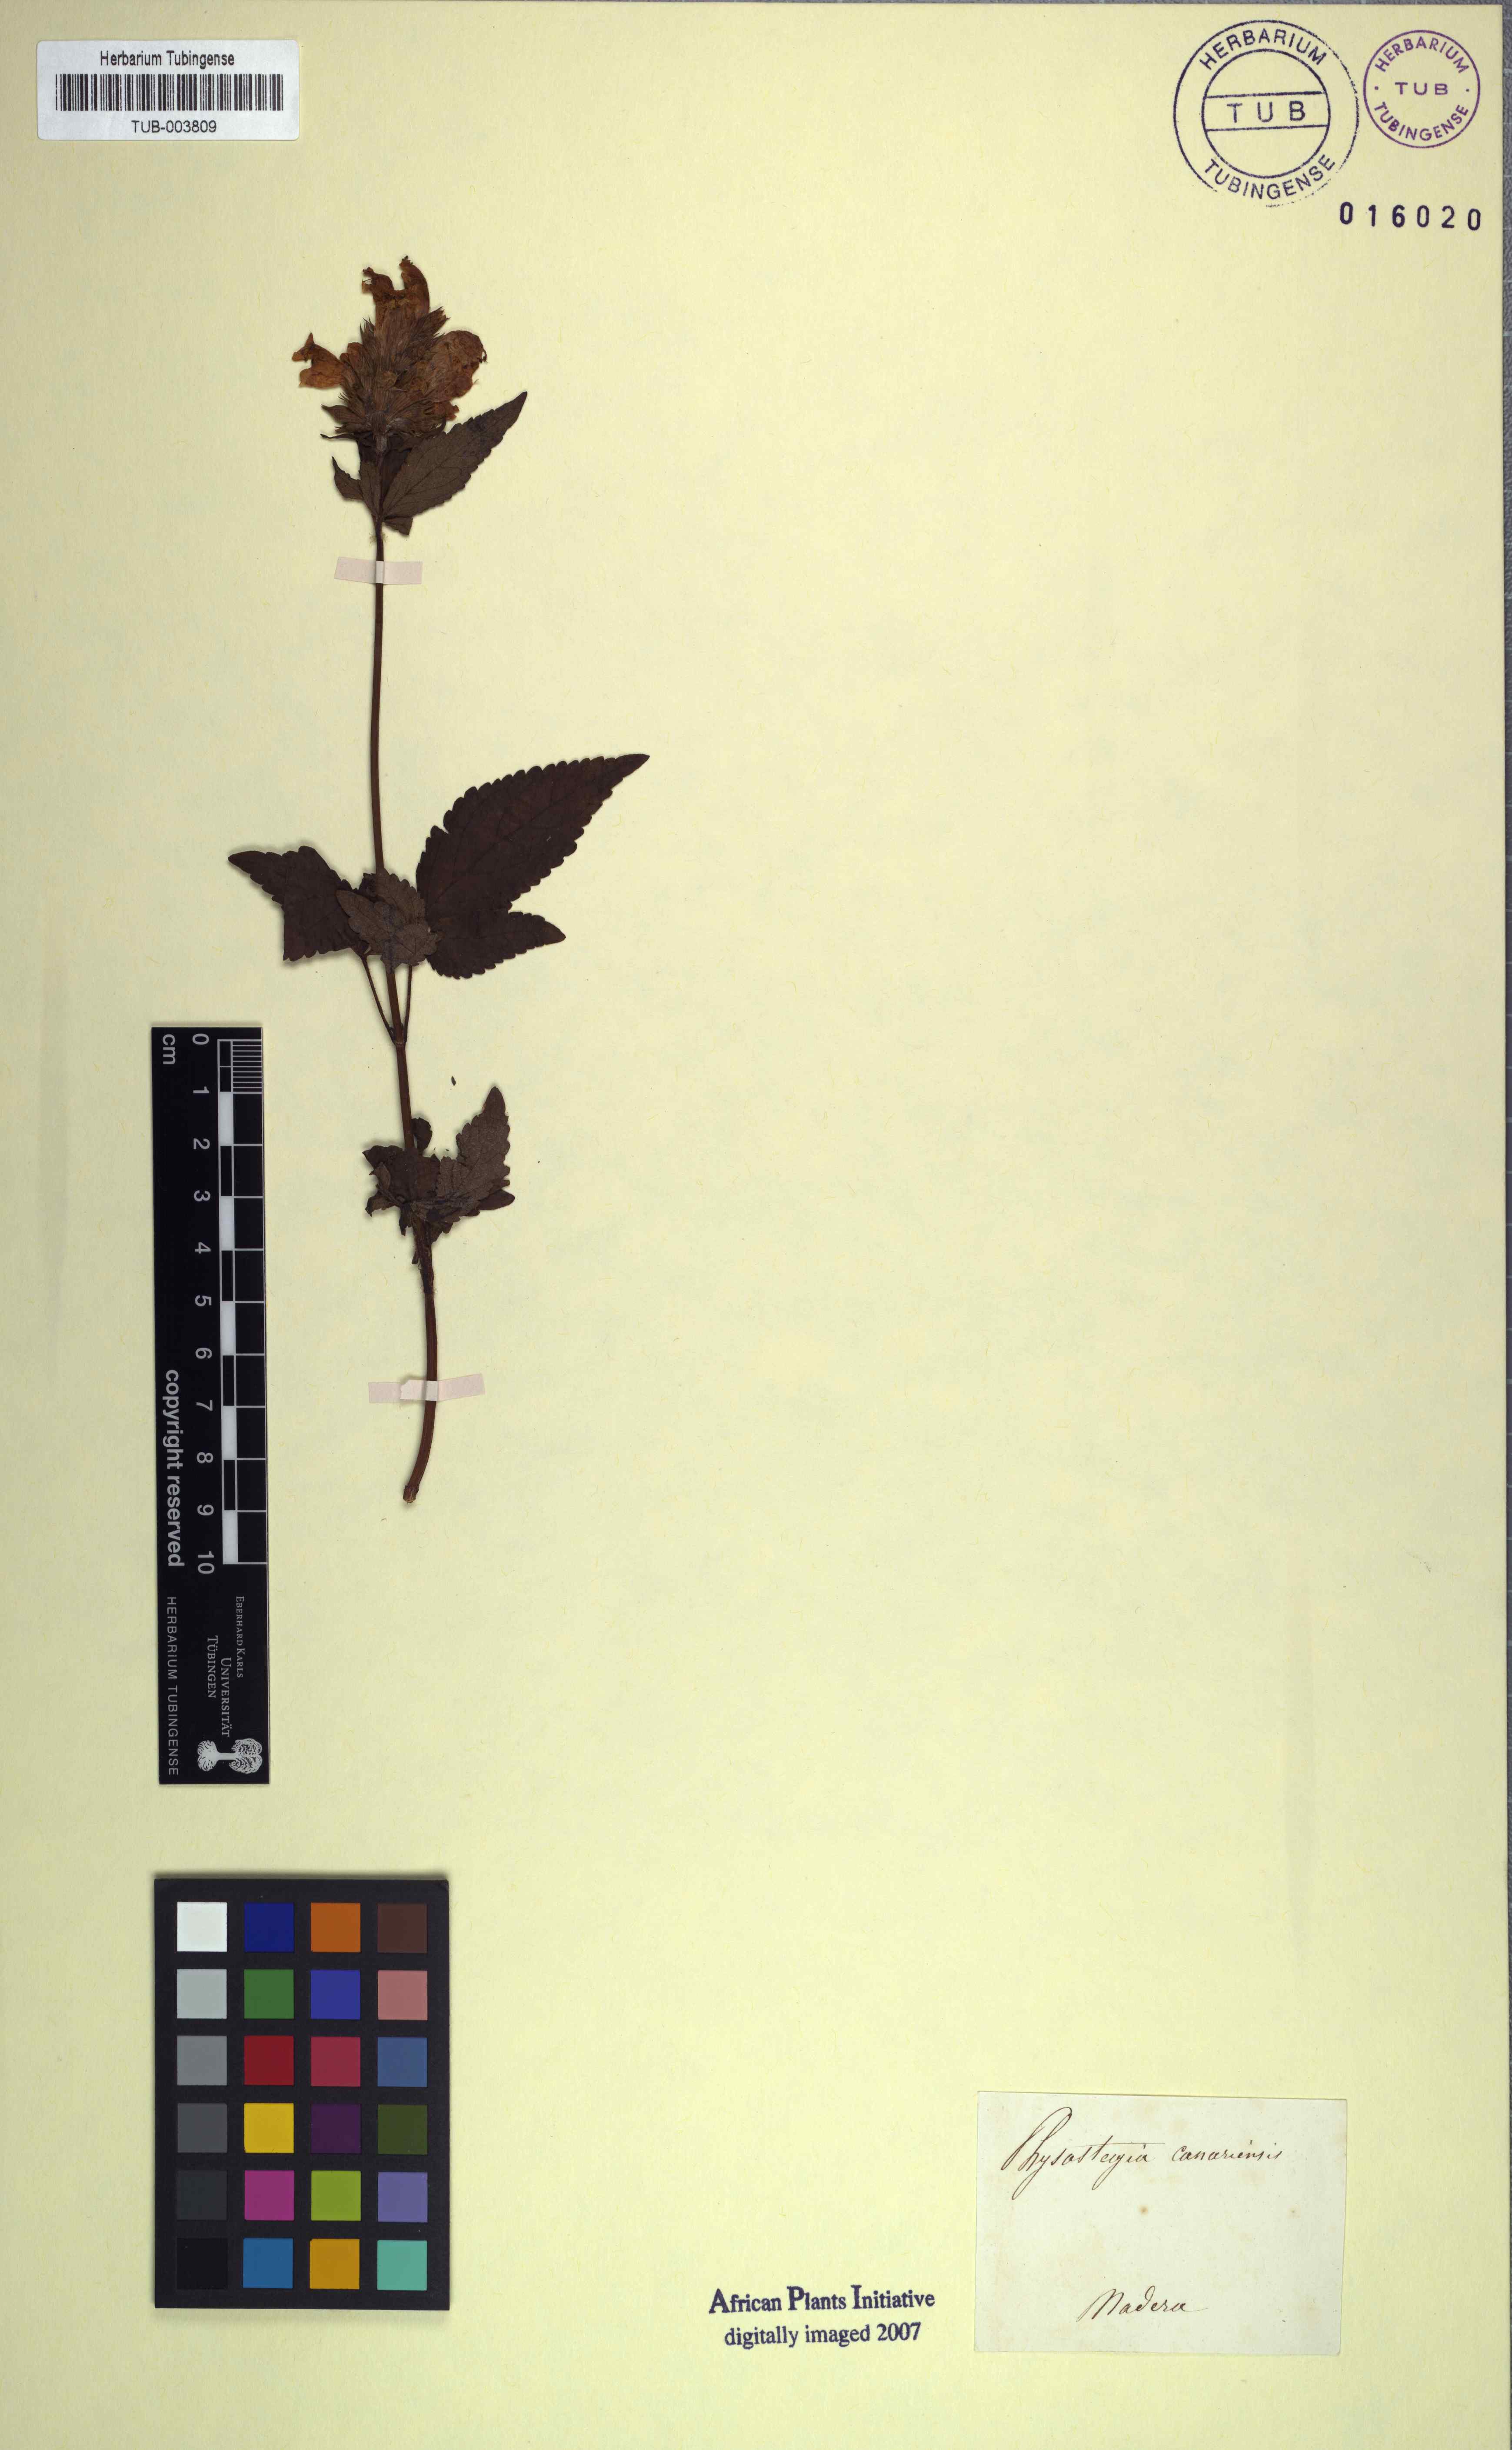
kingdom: Plantae
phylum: Tracheophyta
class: Magnoliopsida
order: Lamiales
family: Lamiaceae
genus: Physostegia
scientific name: Physostegia
